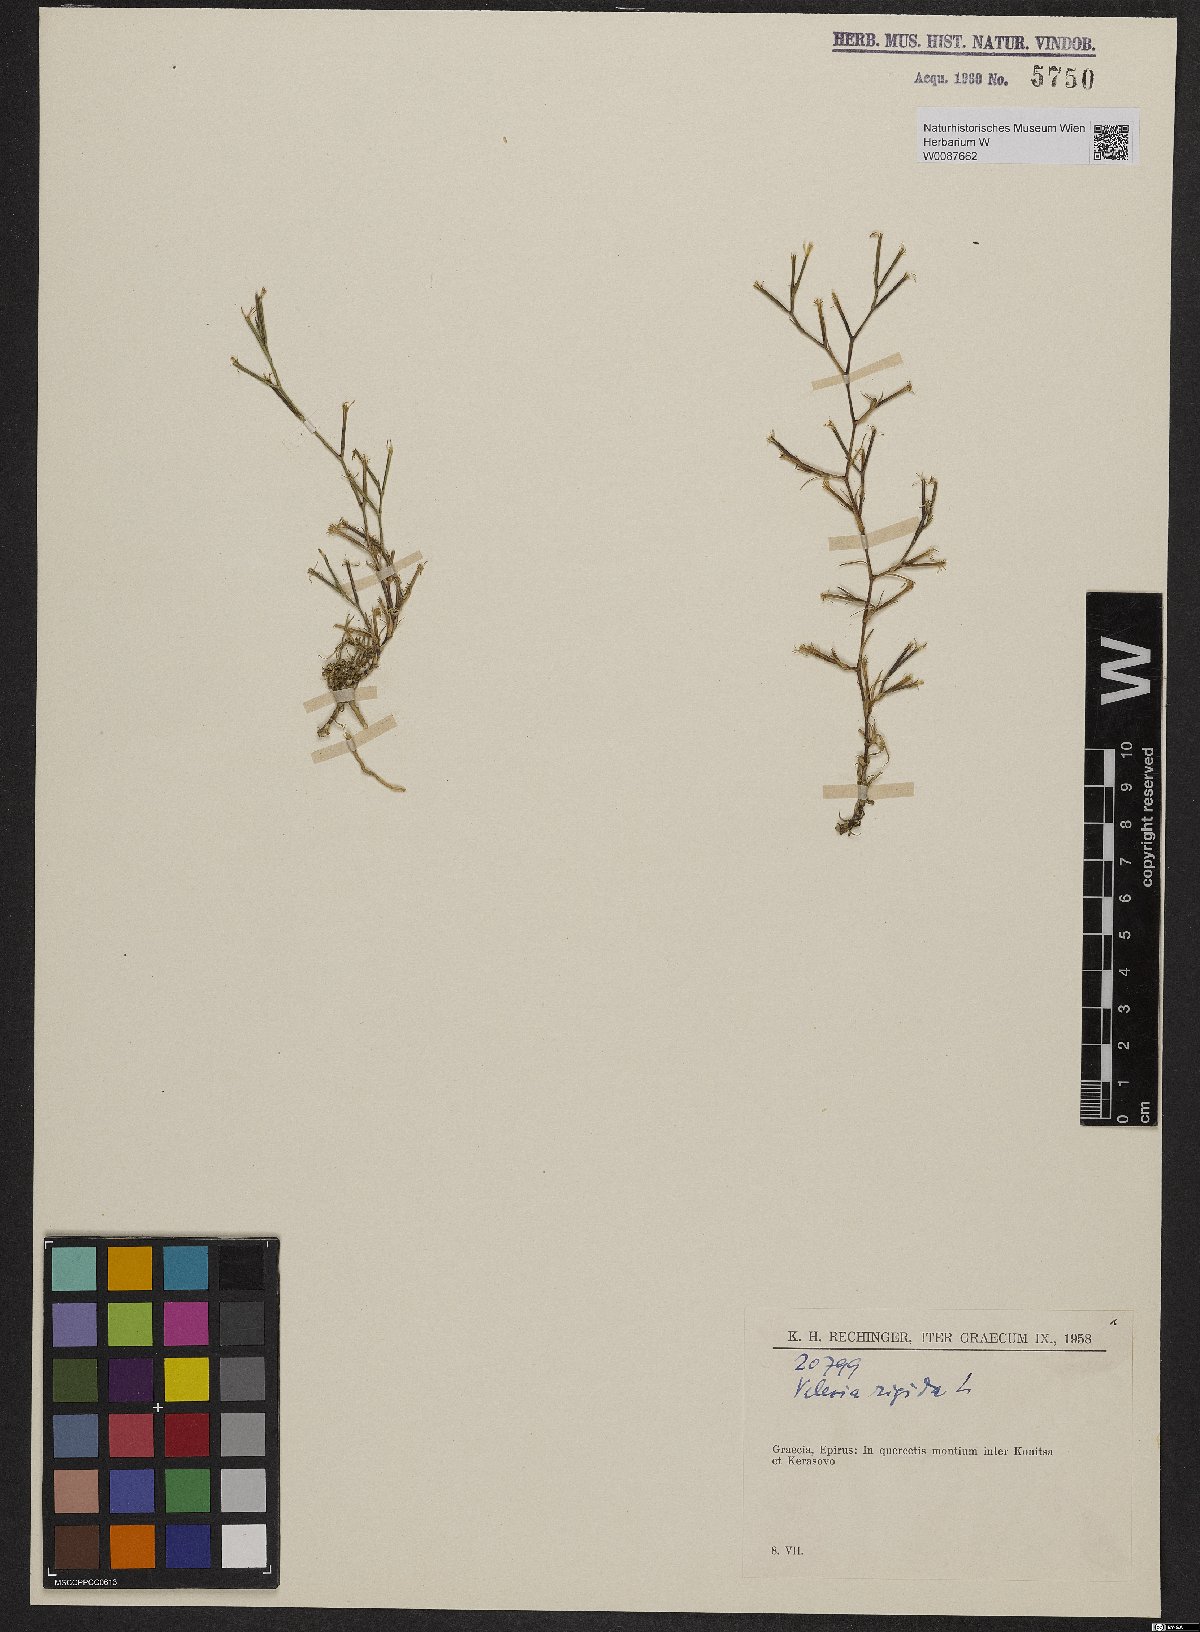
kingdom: Plantae
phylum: Tracheophyta
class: Magnoliopsida
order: Caryophyllales
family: Caryophyllaceae
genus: Dianthus
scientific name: Dianthus nudiflorus
